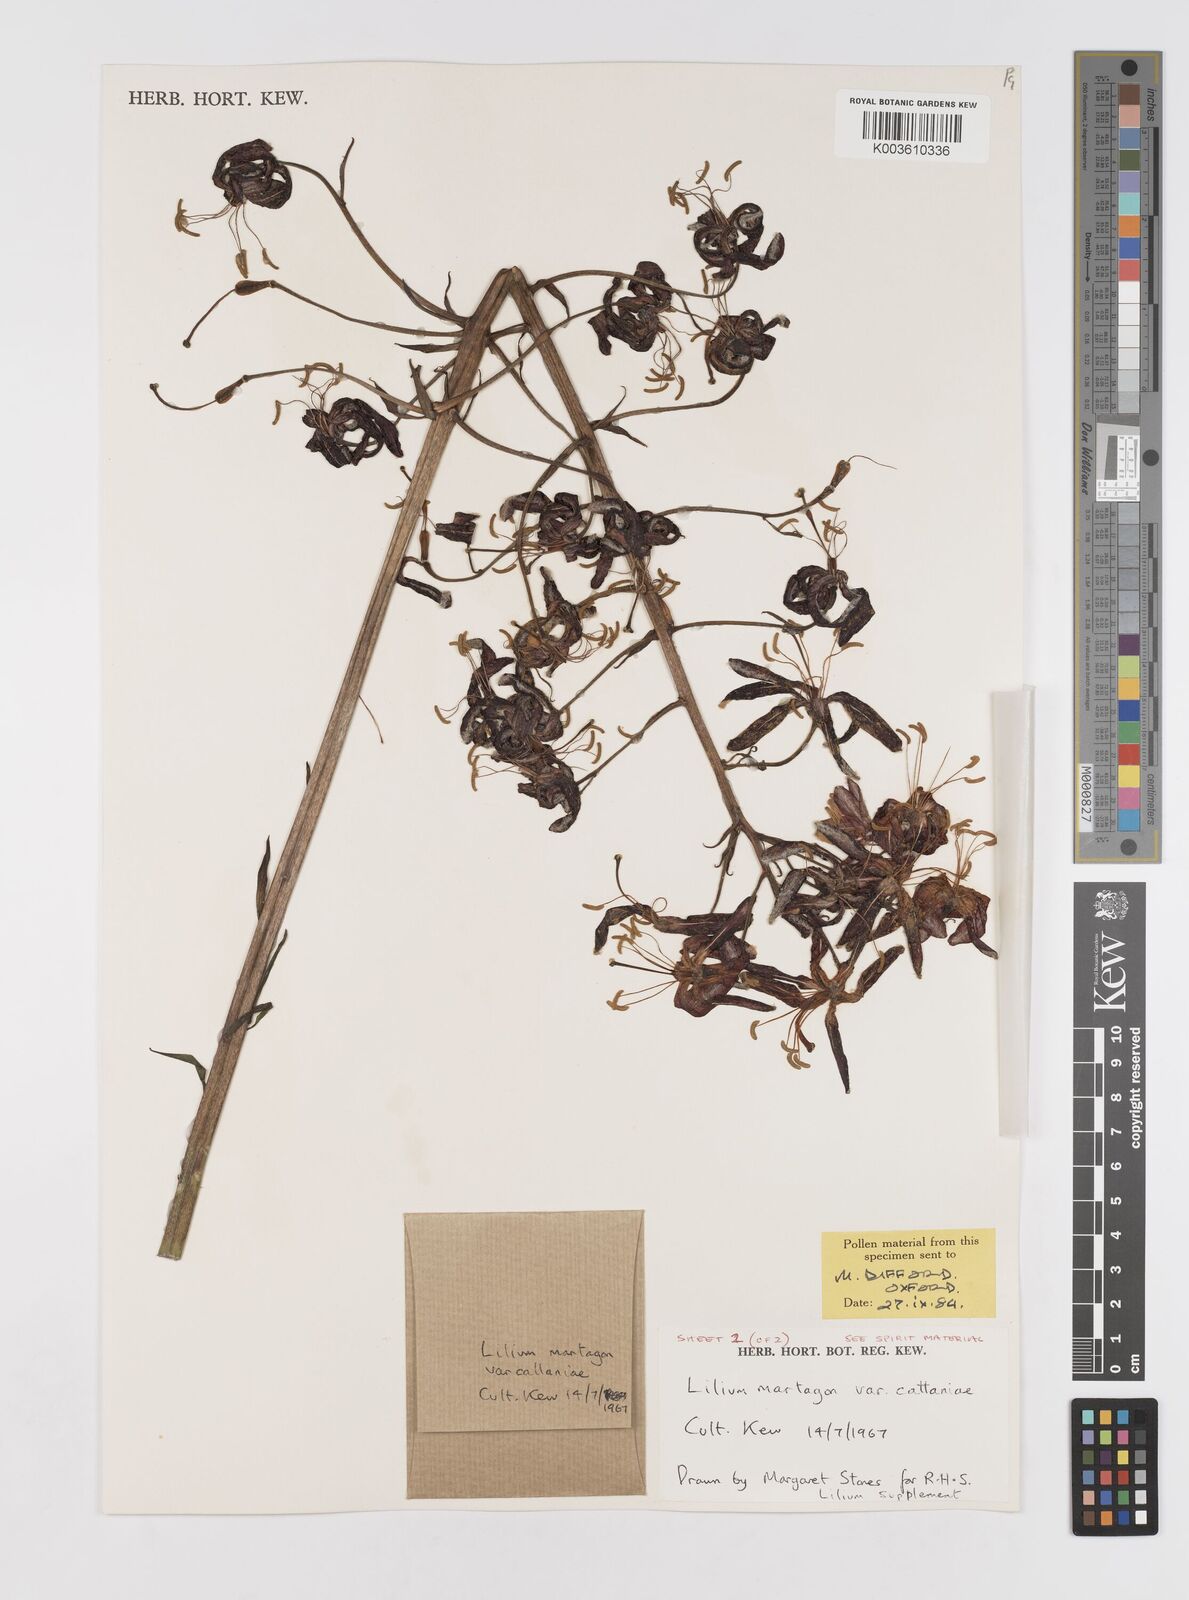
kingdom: Plantae
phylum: Tracheophyta
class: Liliopsida
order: Liliales
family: Liliaceae
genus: Lilium
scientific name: Lilium martagon
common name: Martagon lily
